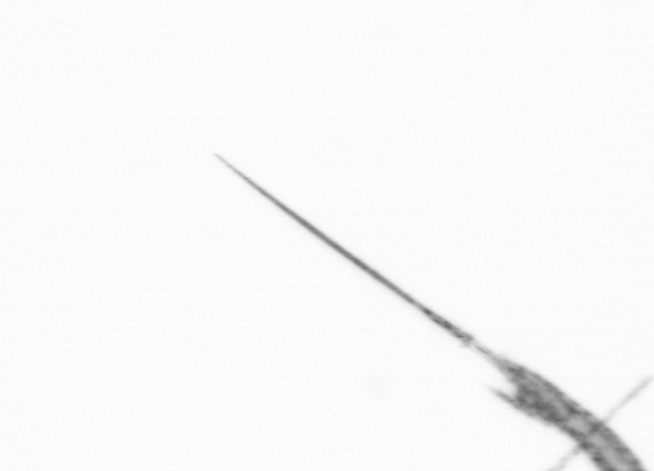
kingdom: Animalia
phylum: Arthropoda
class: Copepoda
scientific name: Copepoda
